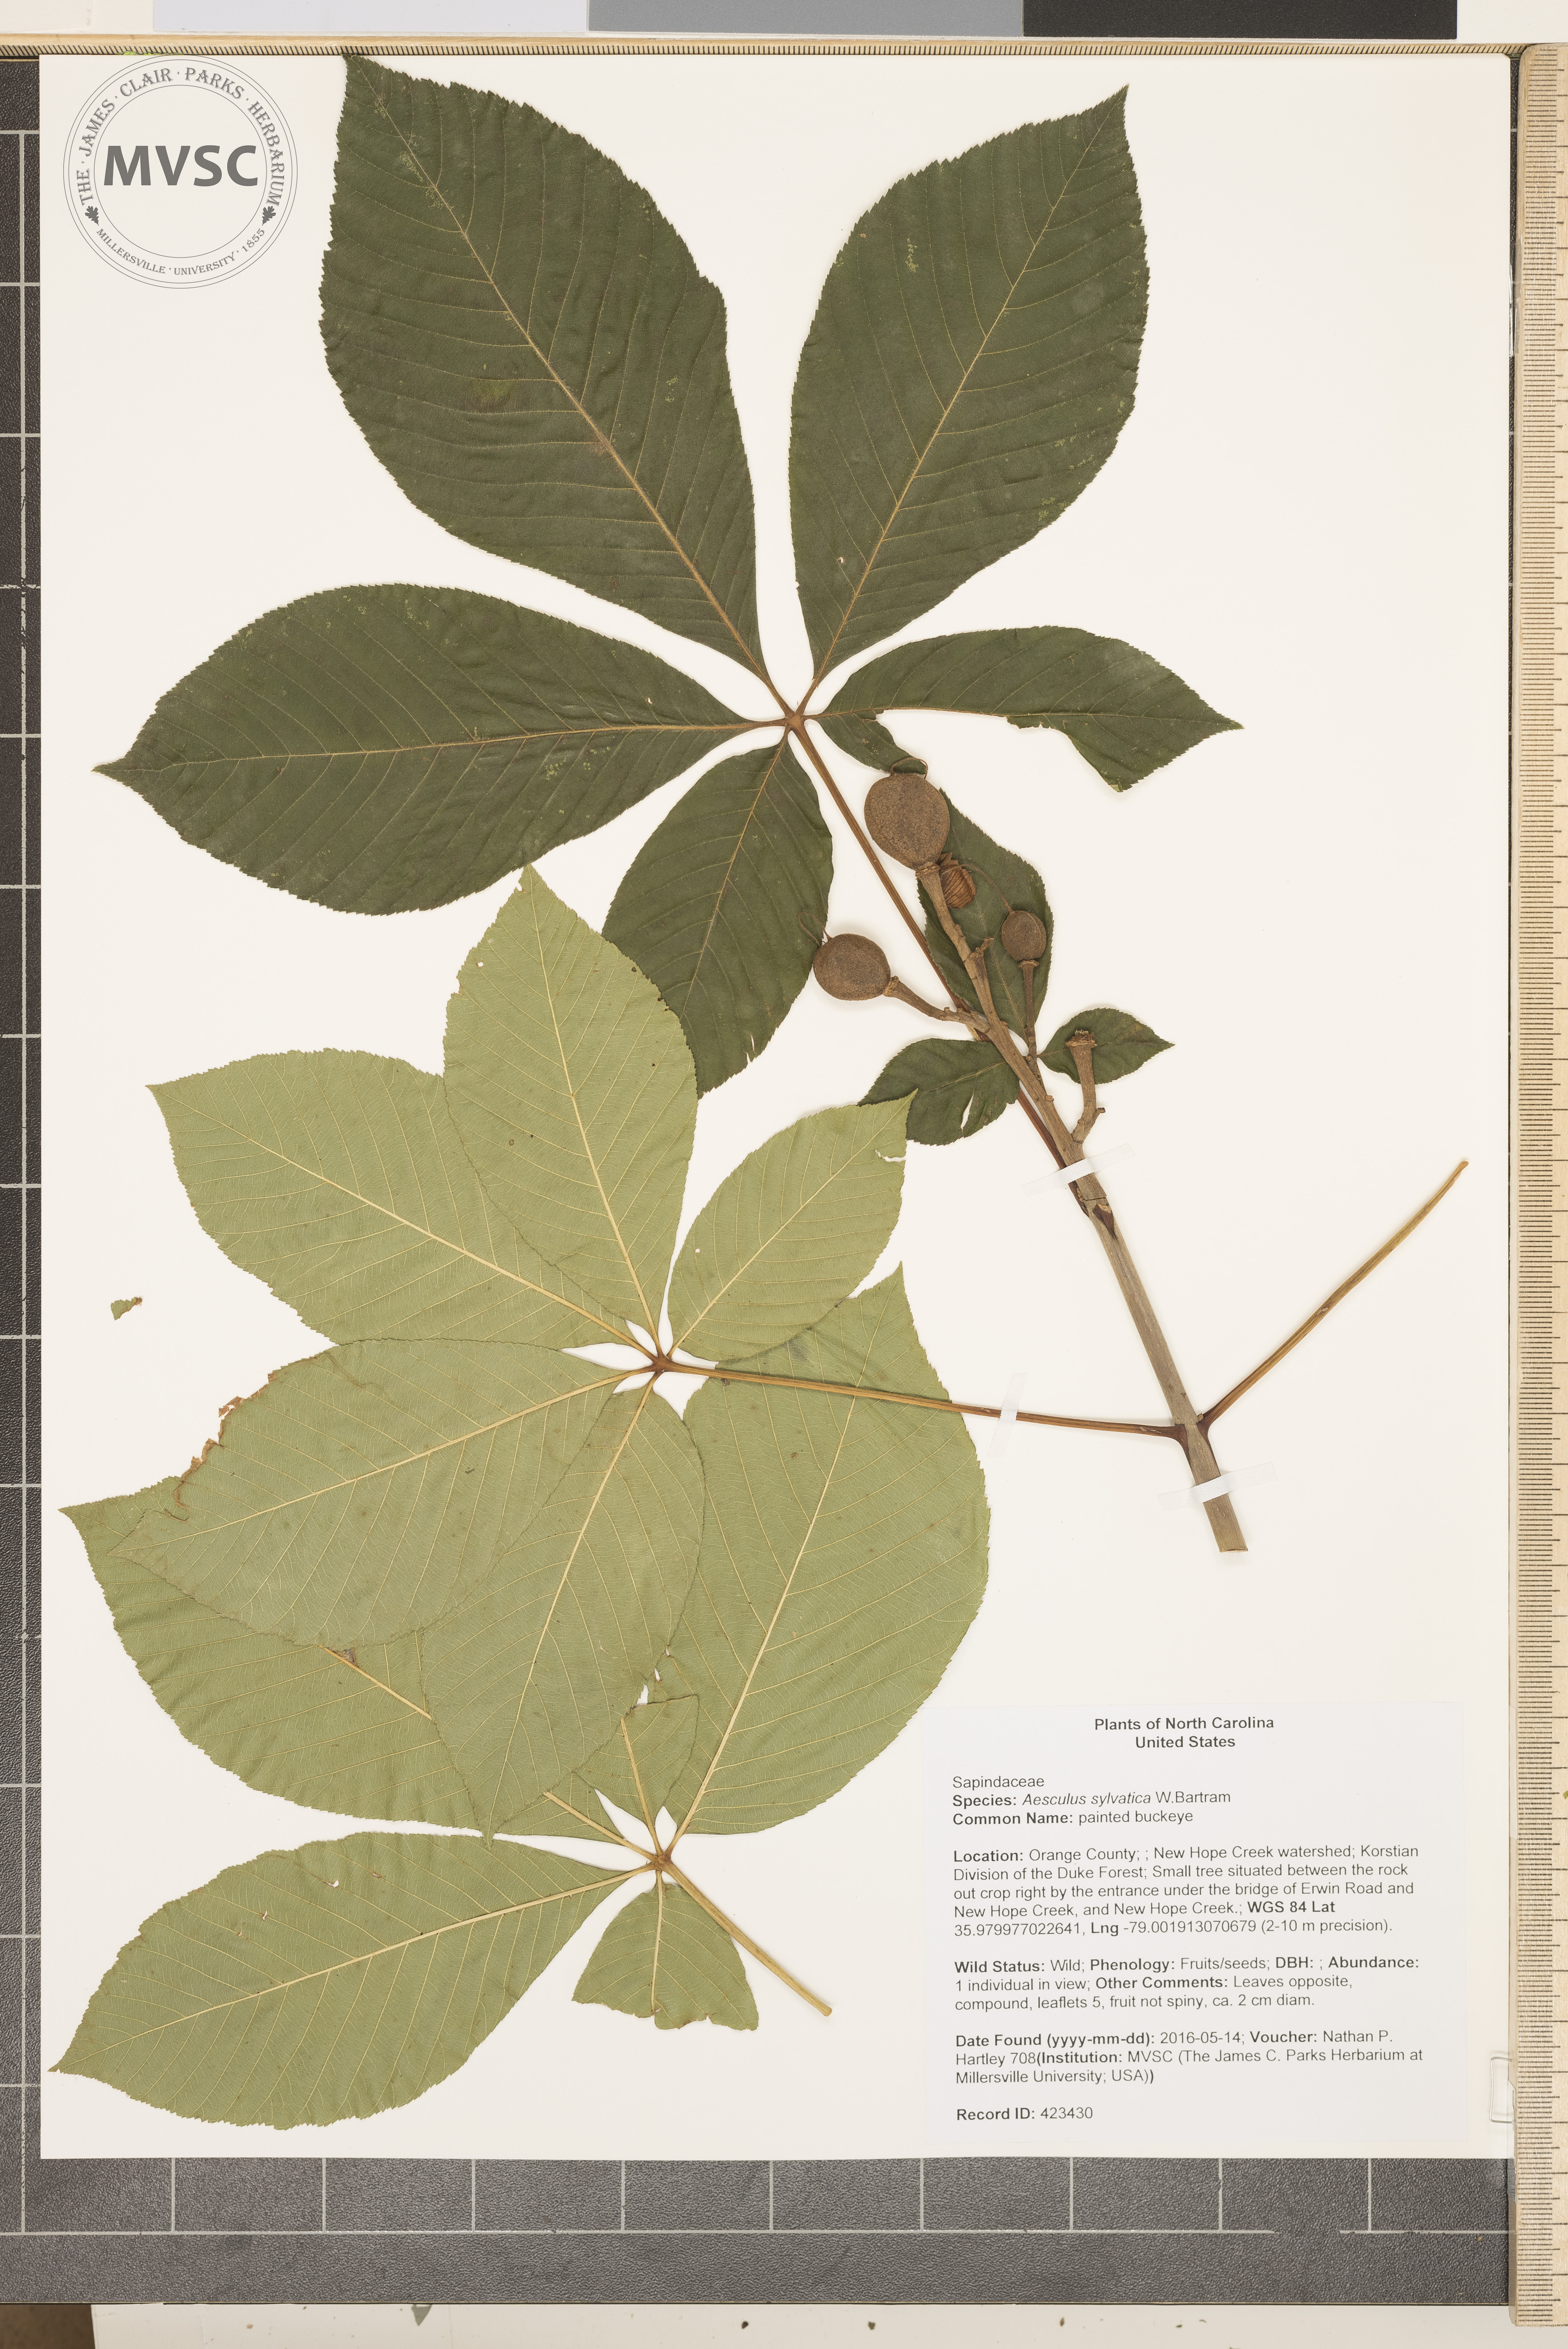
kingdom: Plantae
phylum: Tracheophyta
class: Magnoliopsida
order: Sapindales
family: Sapindaceae
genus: Aesculus
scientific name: Aesculus sylvatica
